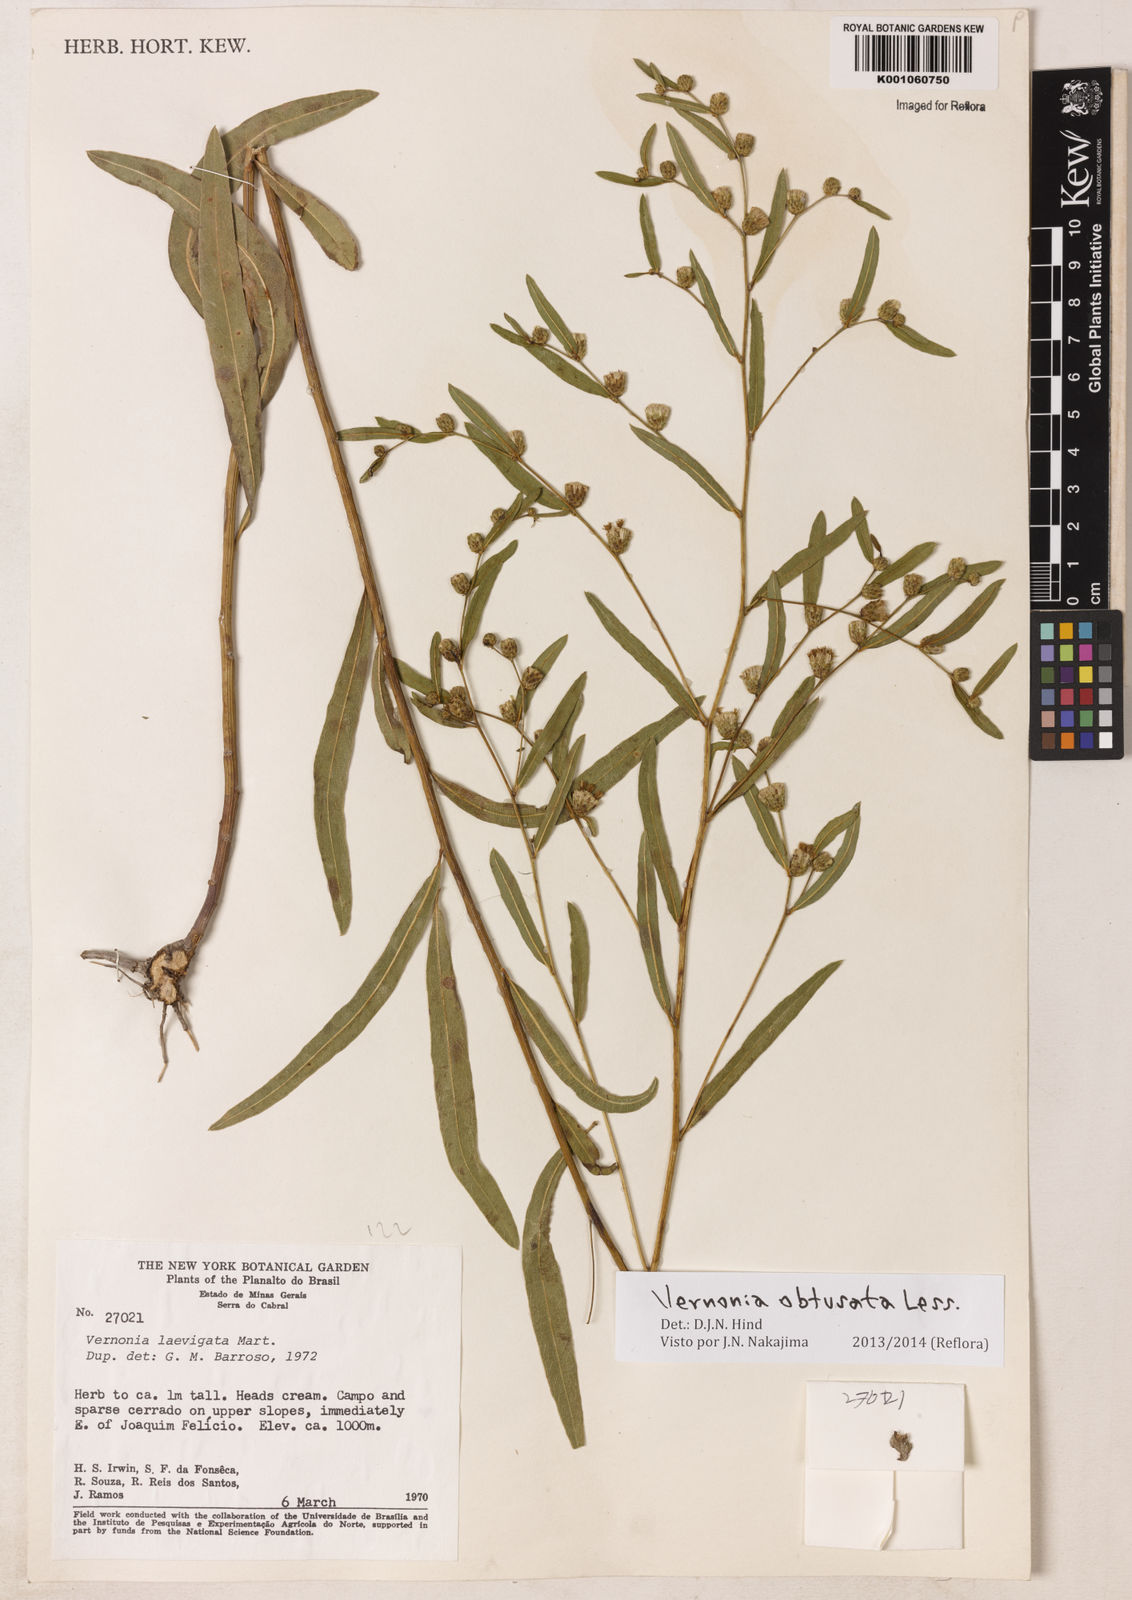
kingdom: Plantae
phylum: Tracheophyta
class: Magnoliopsida
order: Asterales
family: Asteraceae
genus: Lessingianthus
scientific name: Lessingianthus obtusatus
